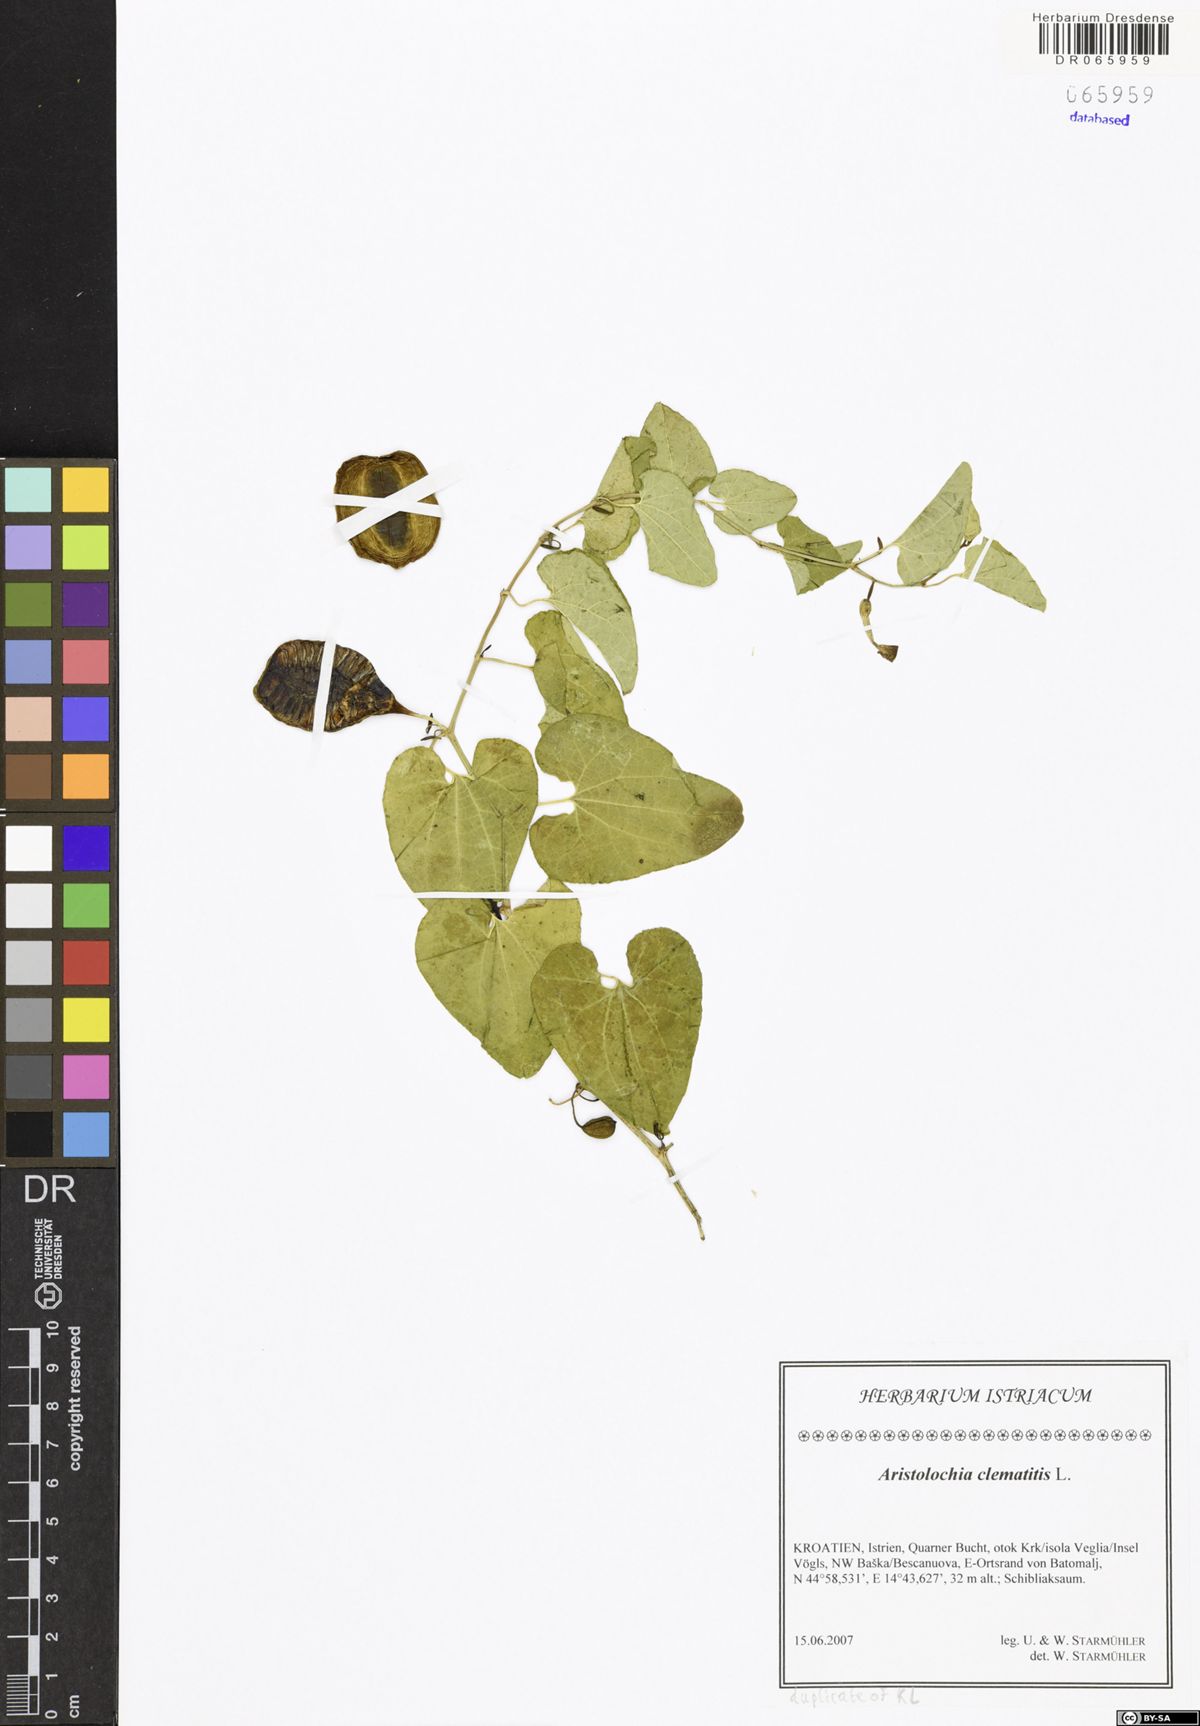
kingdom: Plantae
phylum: Tracheophyta
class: Magnoliopsida
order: Piperales
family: Aristolochiaceae
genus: Aristolochia
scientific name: Aristolochia clematitis
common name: Birthwort
